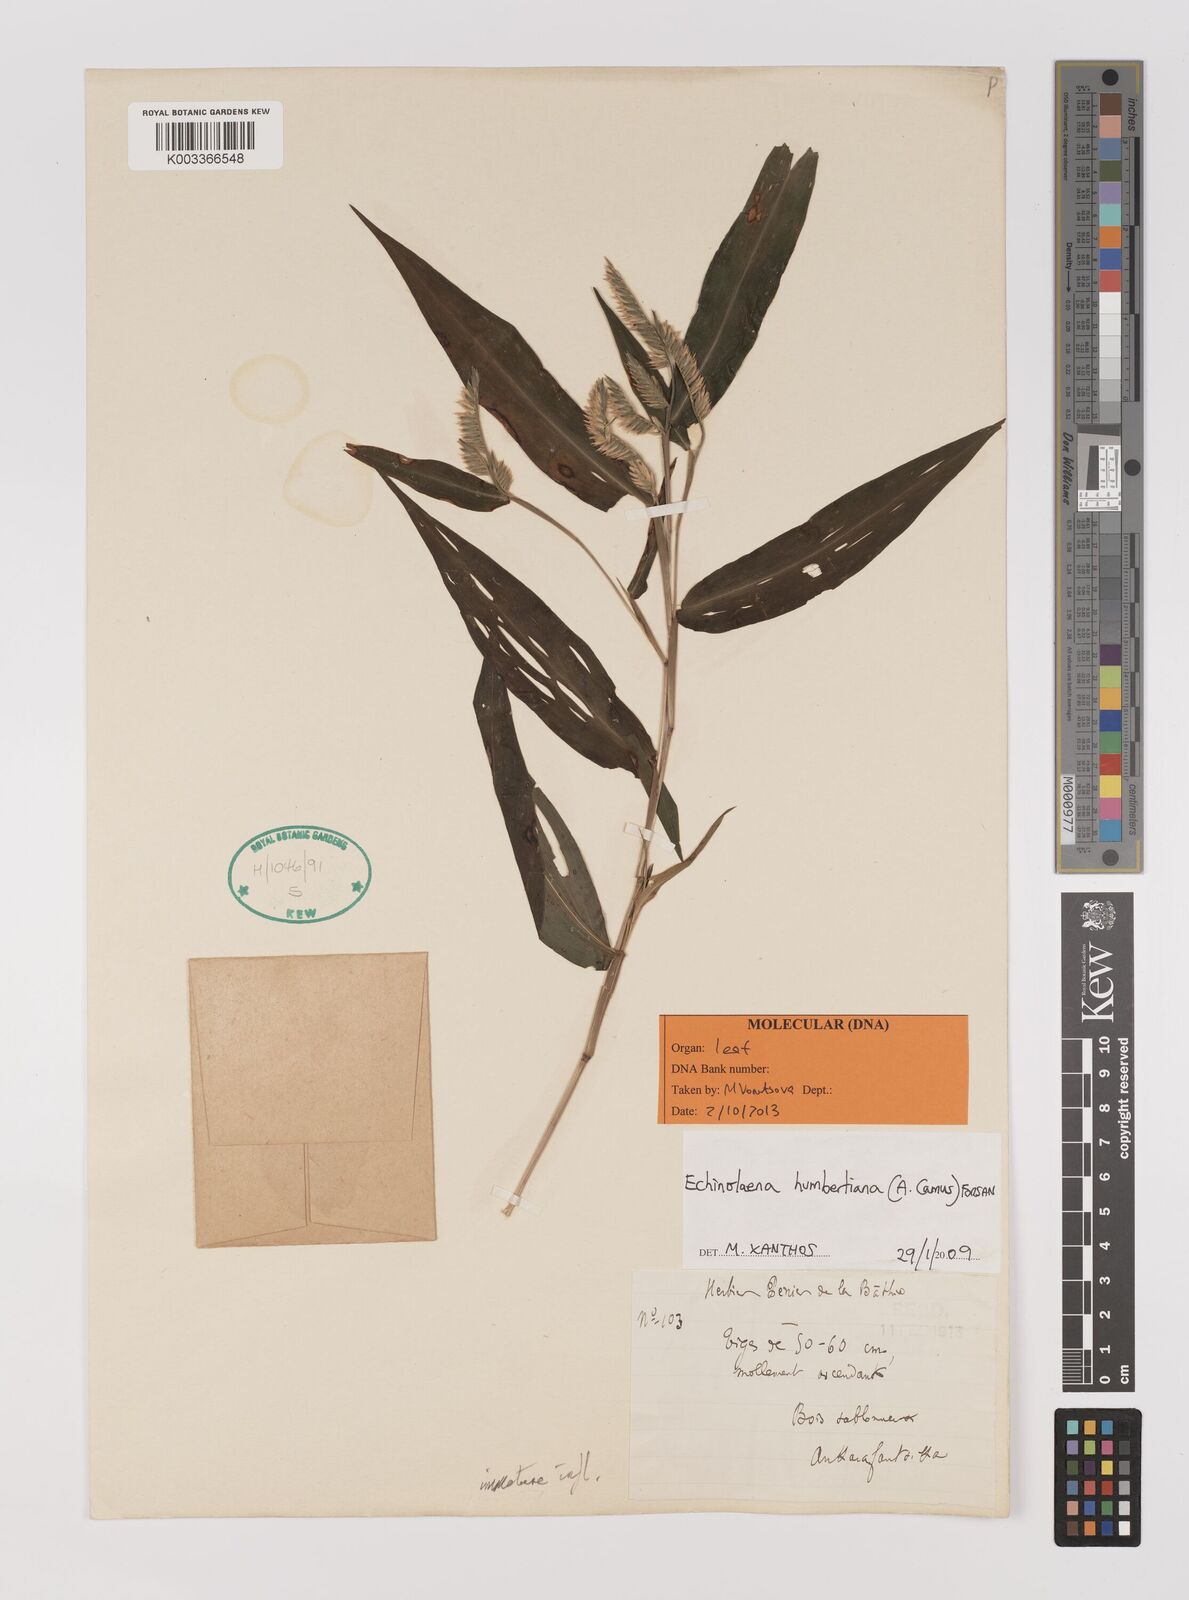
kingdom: Plantae
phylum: Tracheophyta
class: Liliopsida
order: Poales
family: Poaceae
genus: Echinolaena
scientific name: Echinolaena
